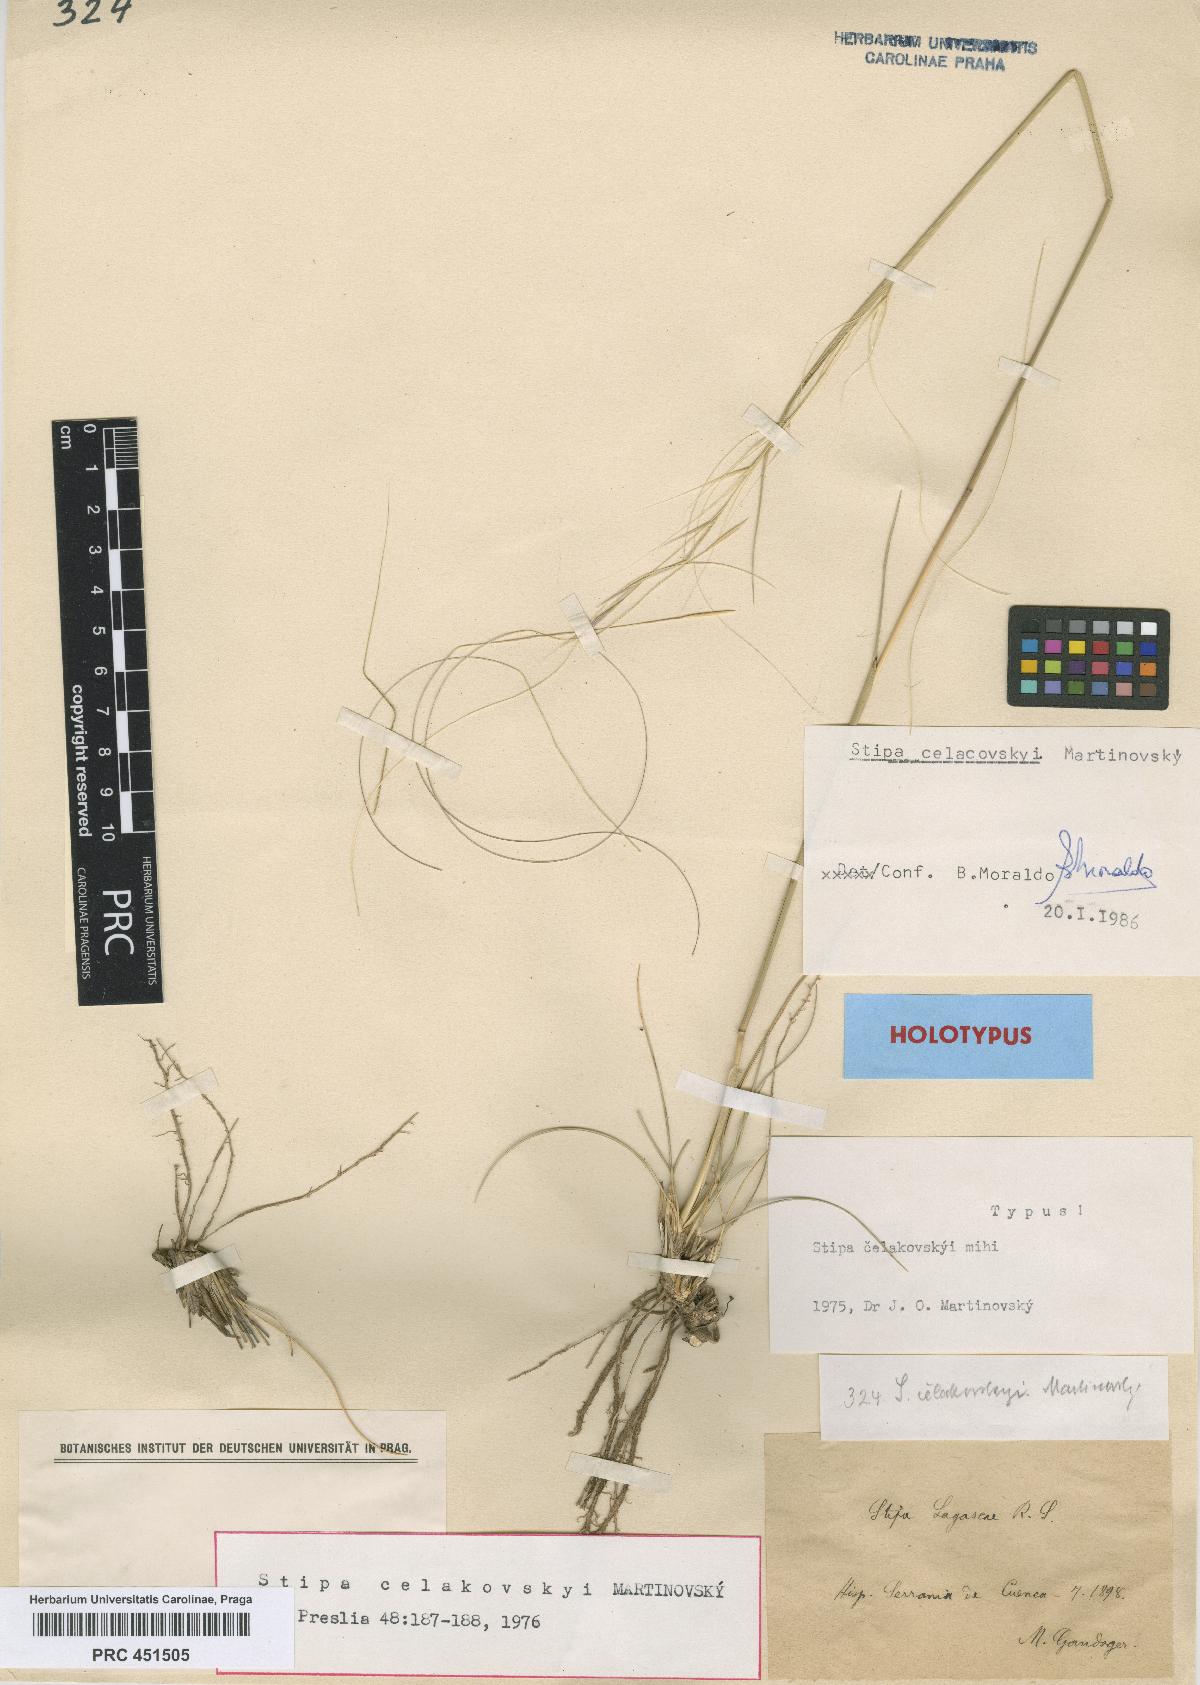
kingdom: Plantae
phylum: Tracheophyta
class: Liliopsida
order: Poales
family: Poaceae
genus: Stipa
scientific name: Stipa juncea
